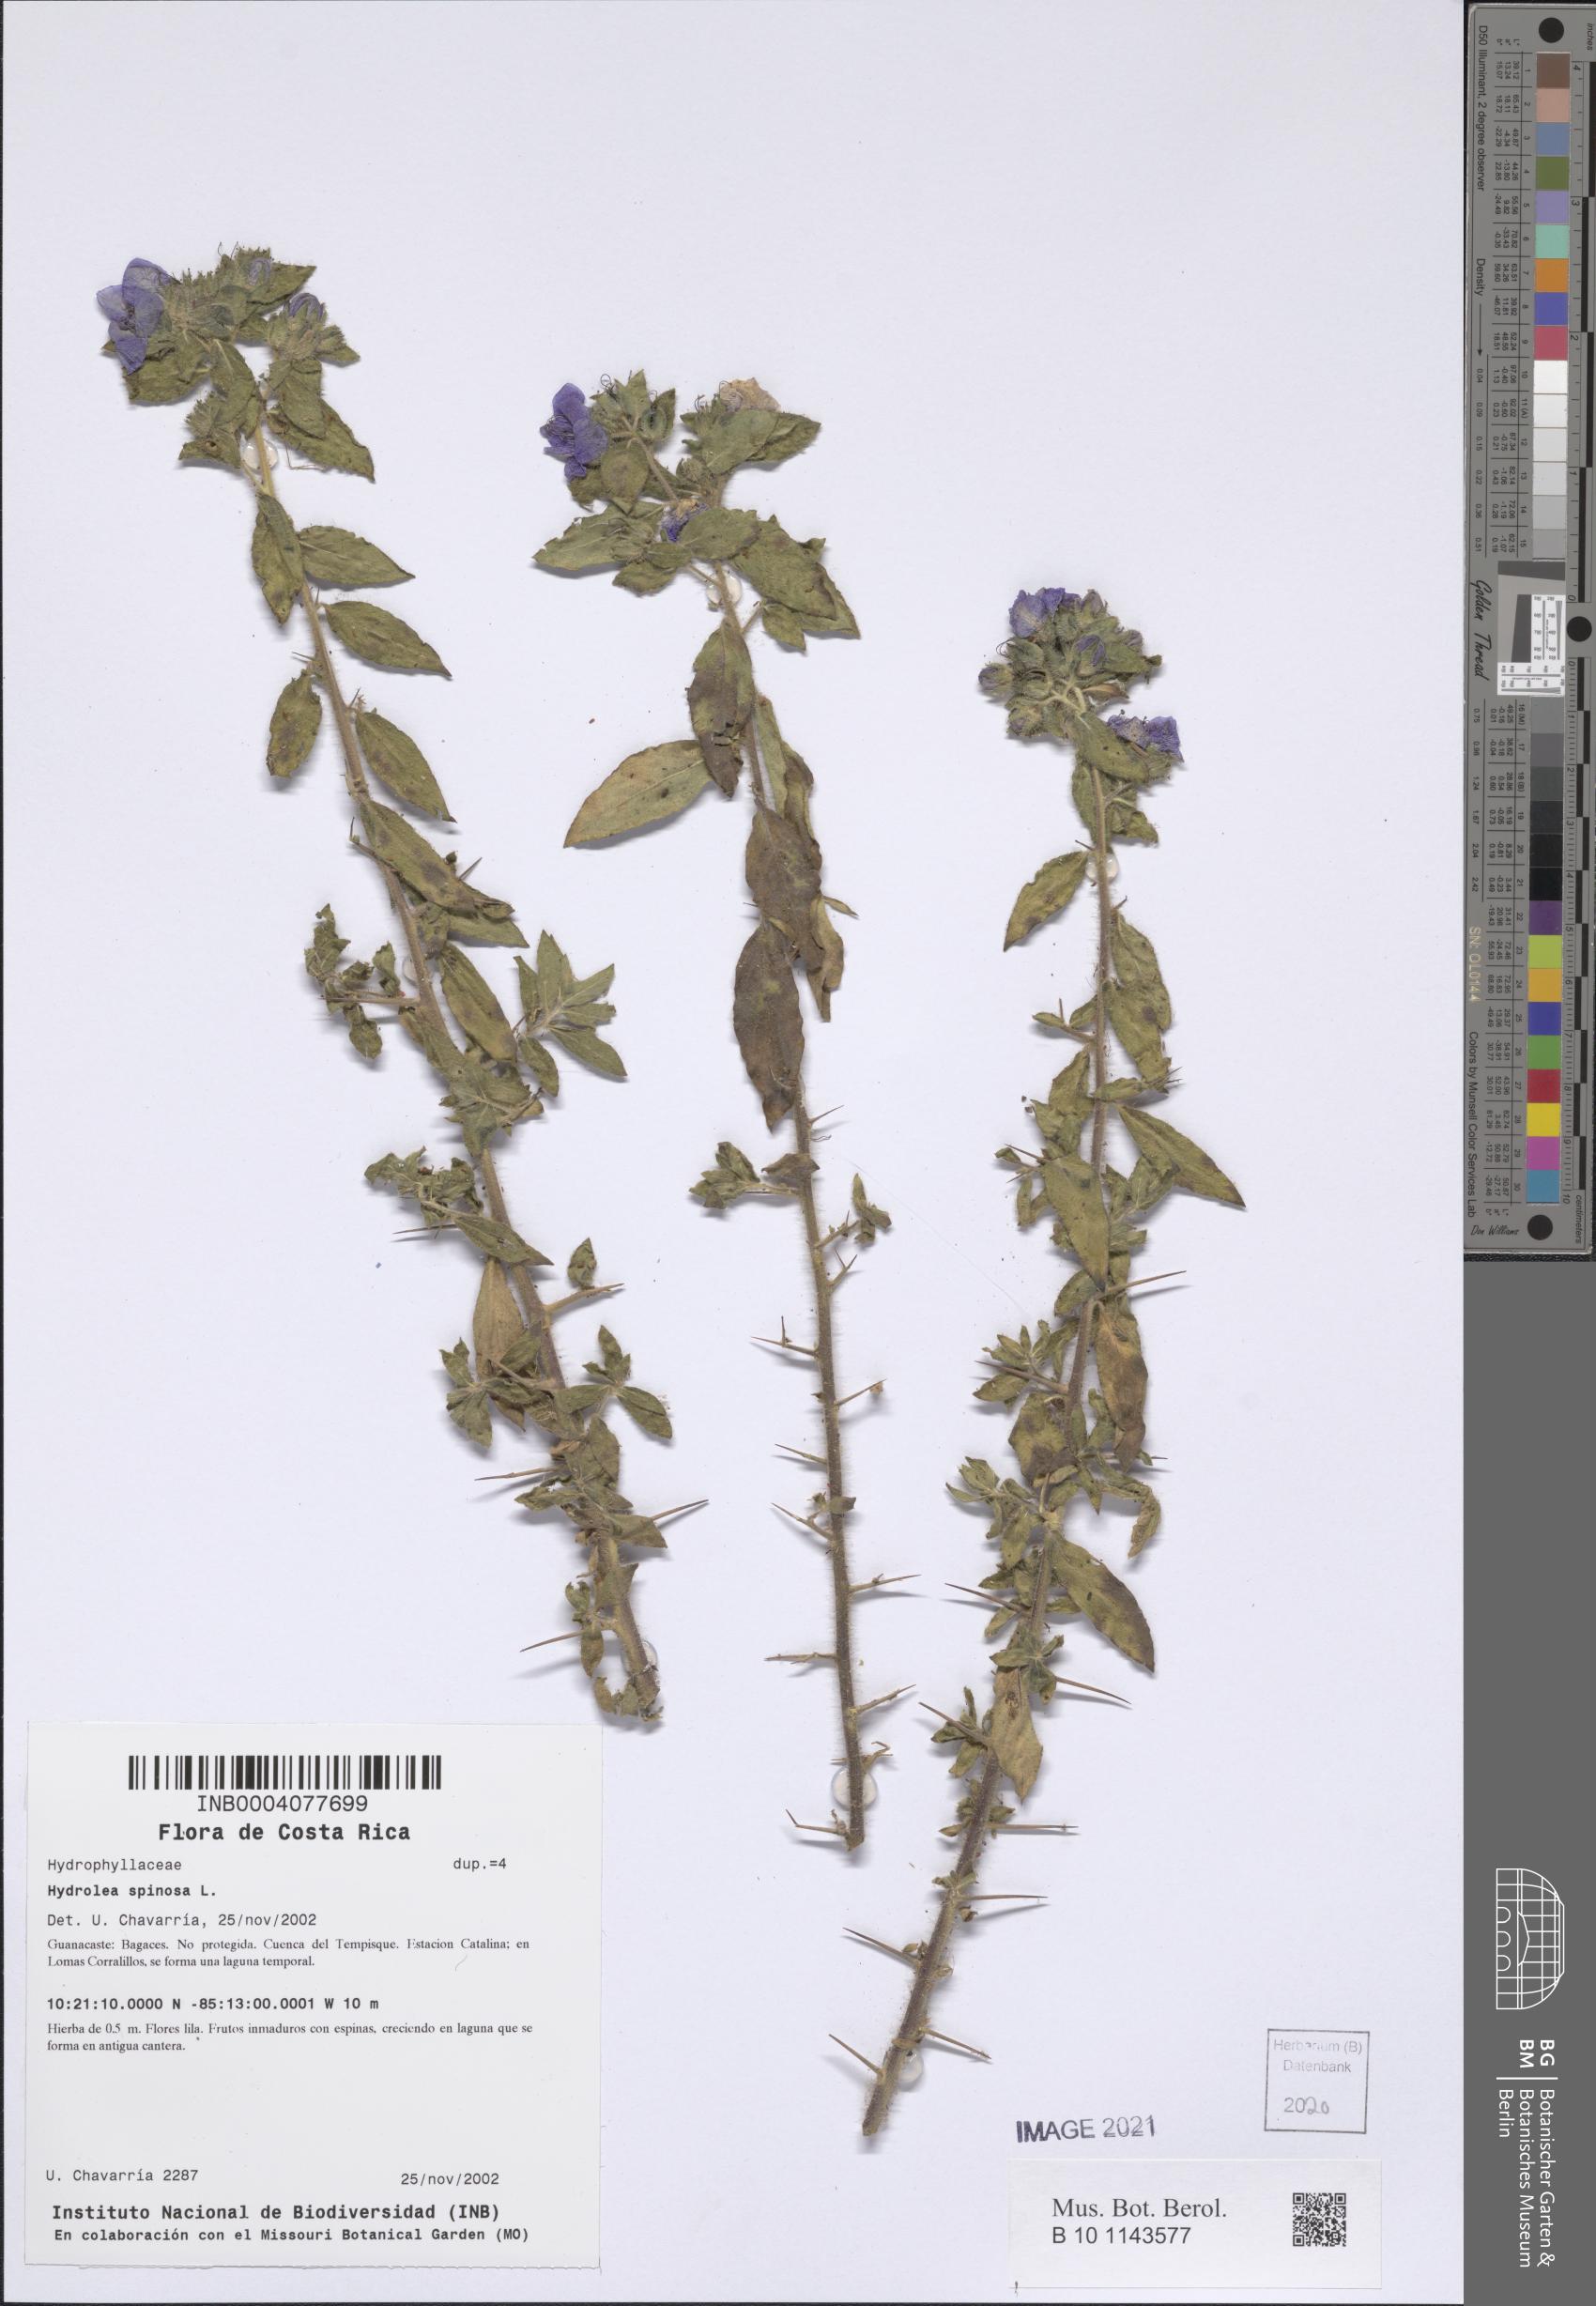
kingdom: Plantae
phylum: Tracheophyta
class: Magnoliopsida
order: Solanales
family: Hydroleaceae
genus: Hydrolea
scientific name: Hydrolea spinosa
